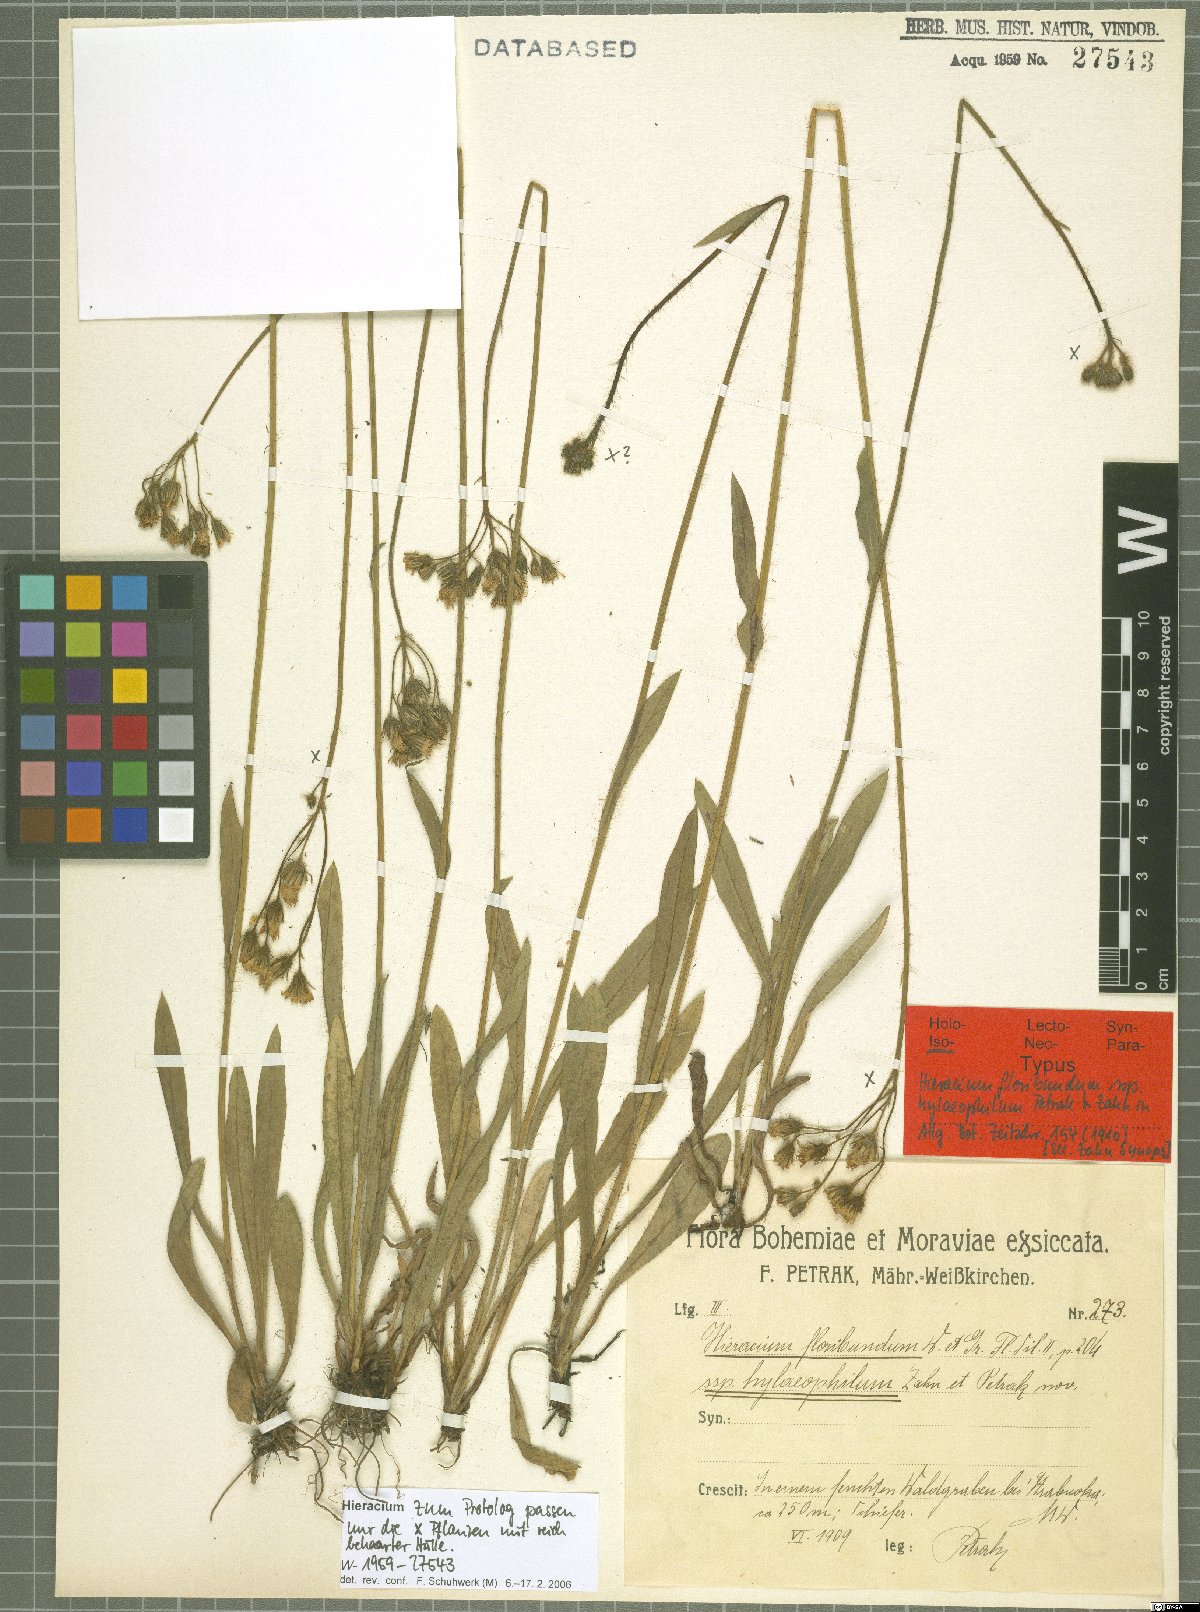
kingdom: Plantae
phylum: Tracheophyta
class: Magnoliopsida
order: Asterales
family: Asteraceae
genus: Pilosella
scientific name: Pilosella floribunda
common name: Glaucous hawkweed
